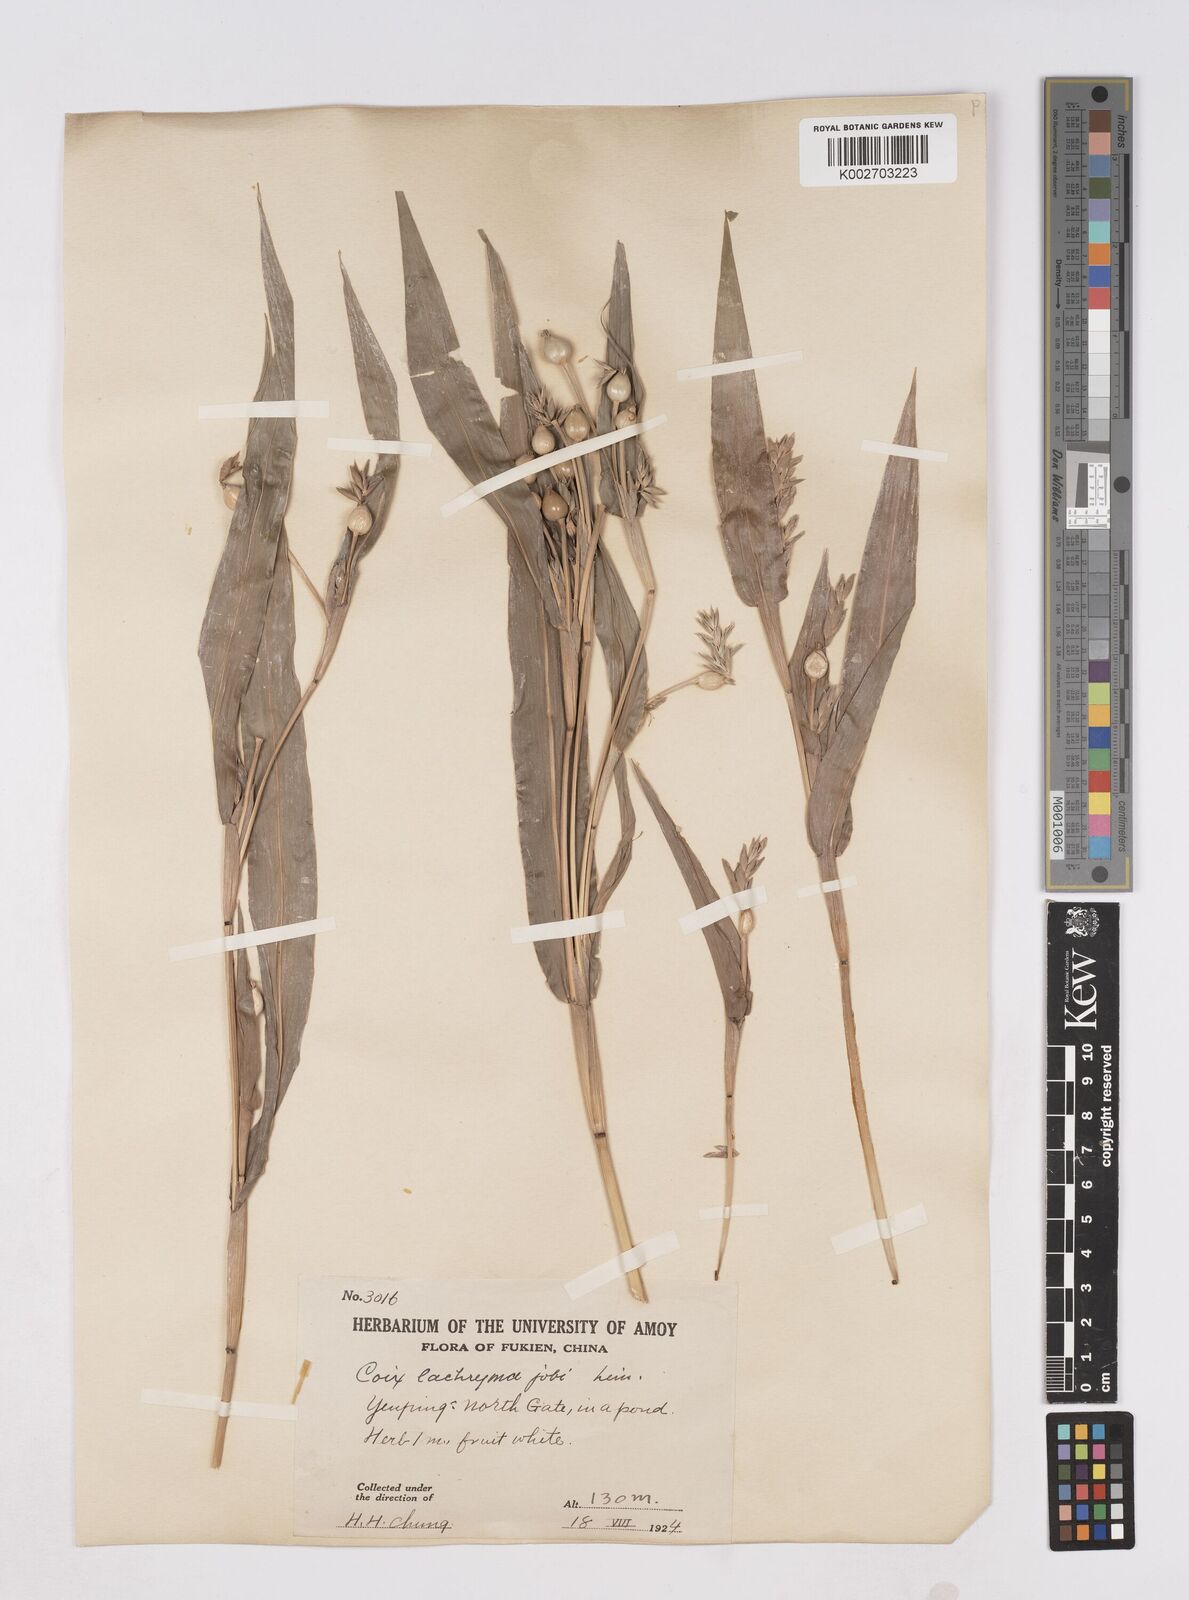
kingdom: Plantae
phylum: Tracheophyta
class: Liliopsida
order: Poales
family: Poaceae
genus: Coix
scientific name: Coix lacryma-jobi
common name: Job's tears
